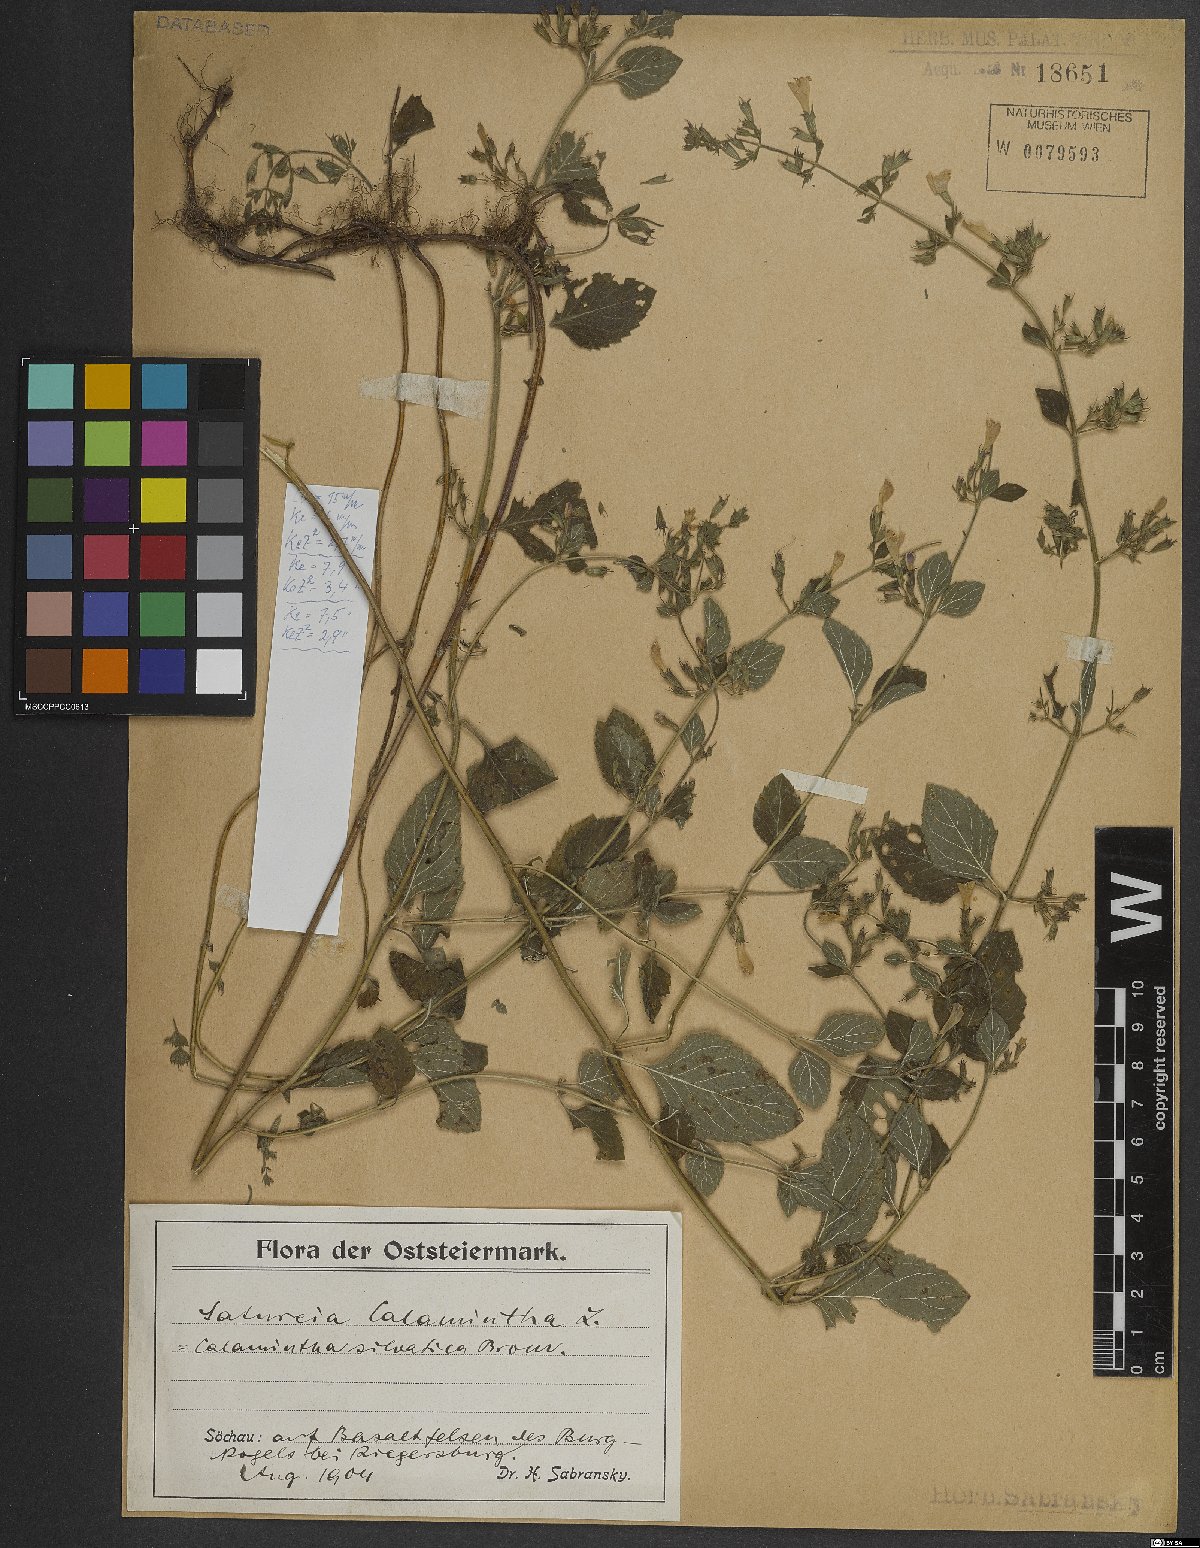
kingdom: Plantae
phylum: Tracheophyta
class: Magnoliopsida
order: Lamiales
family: Lamiaceae
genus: Clinopodium
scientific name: Clinopodium menthifolium
